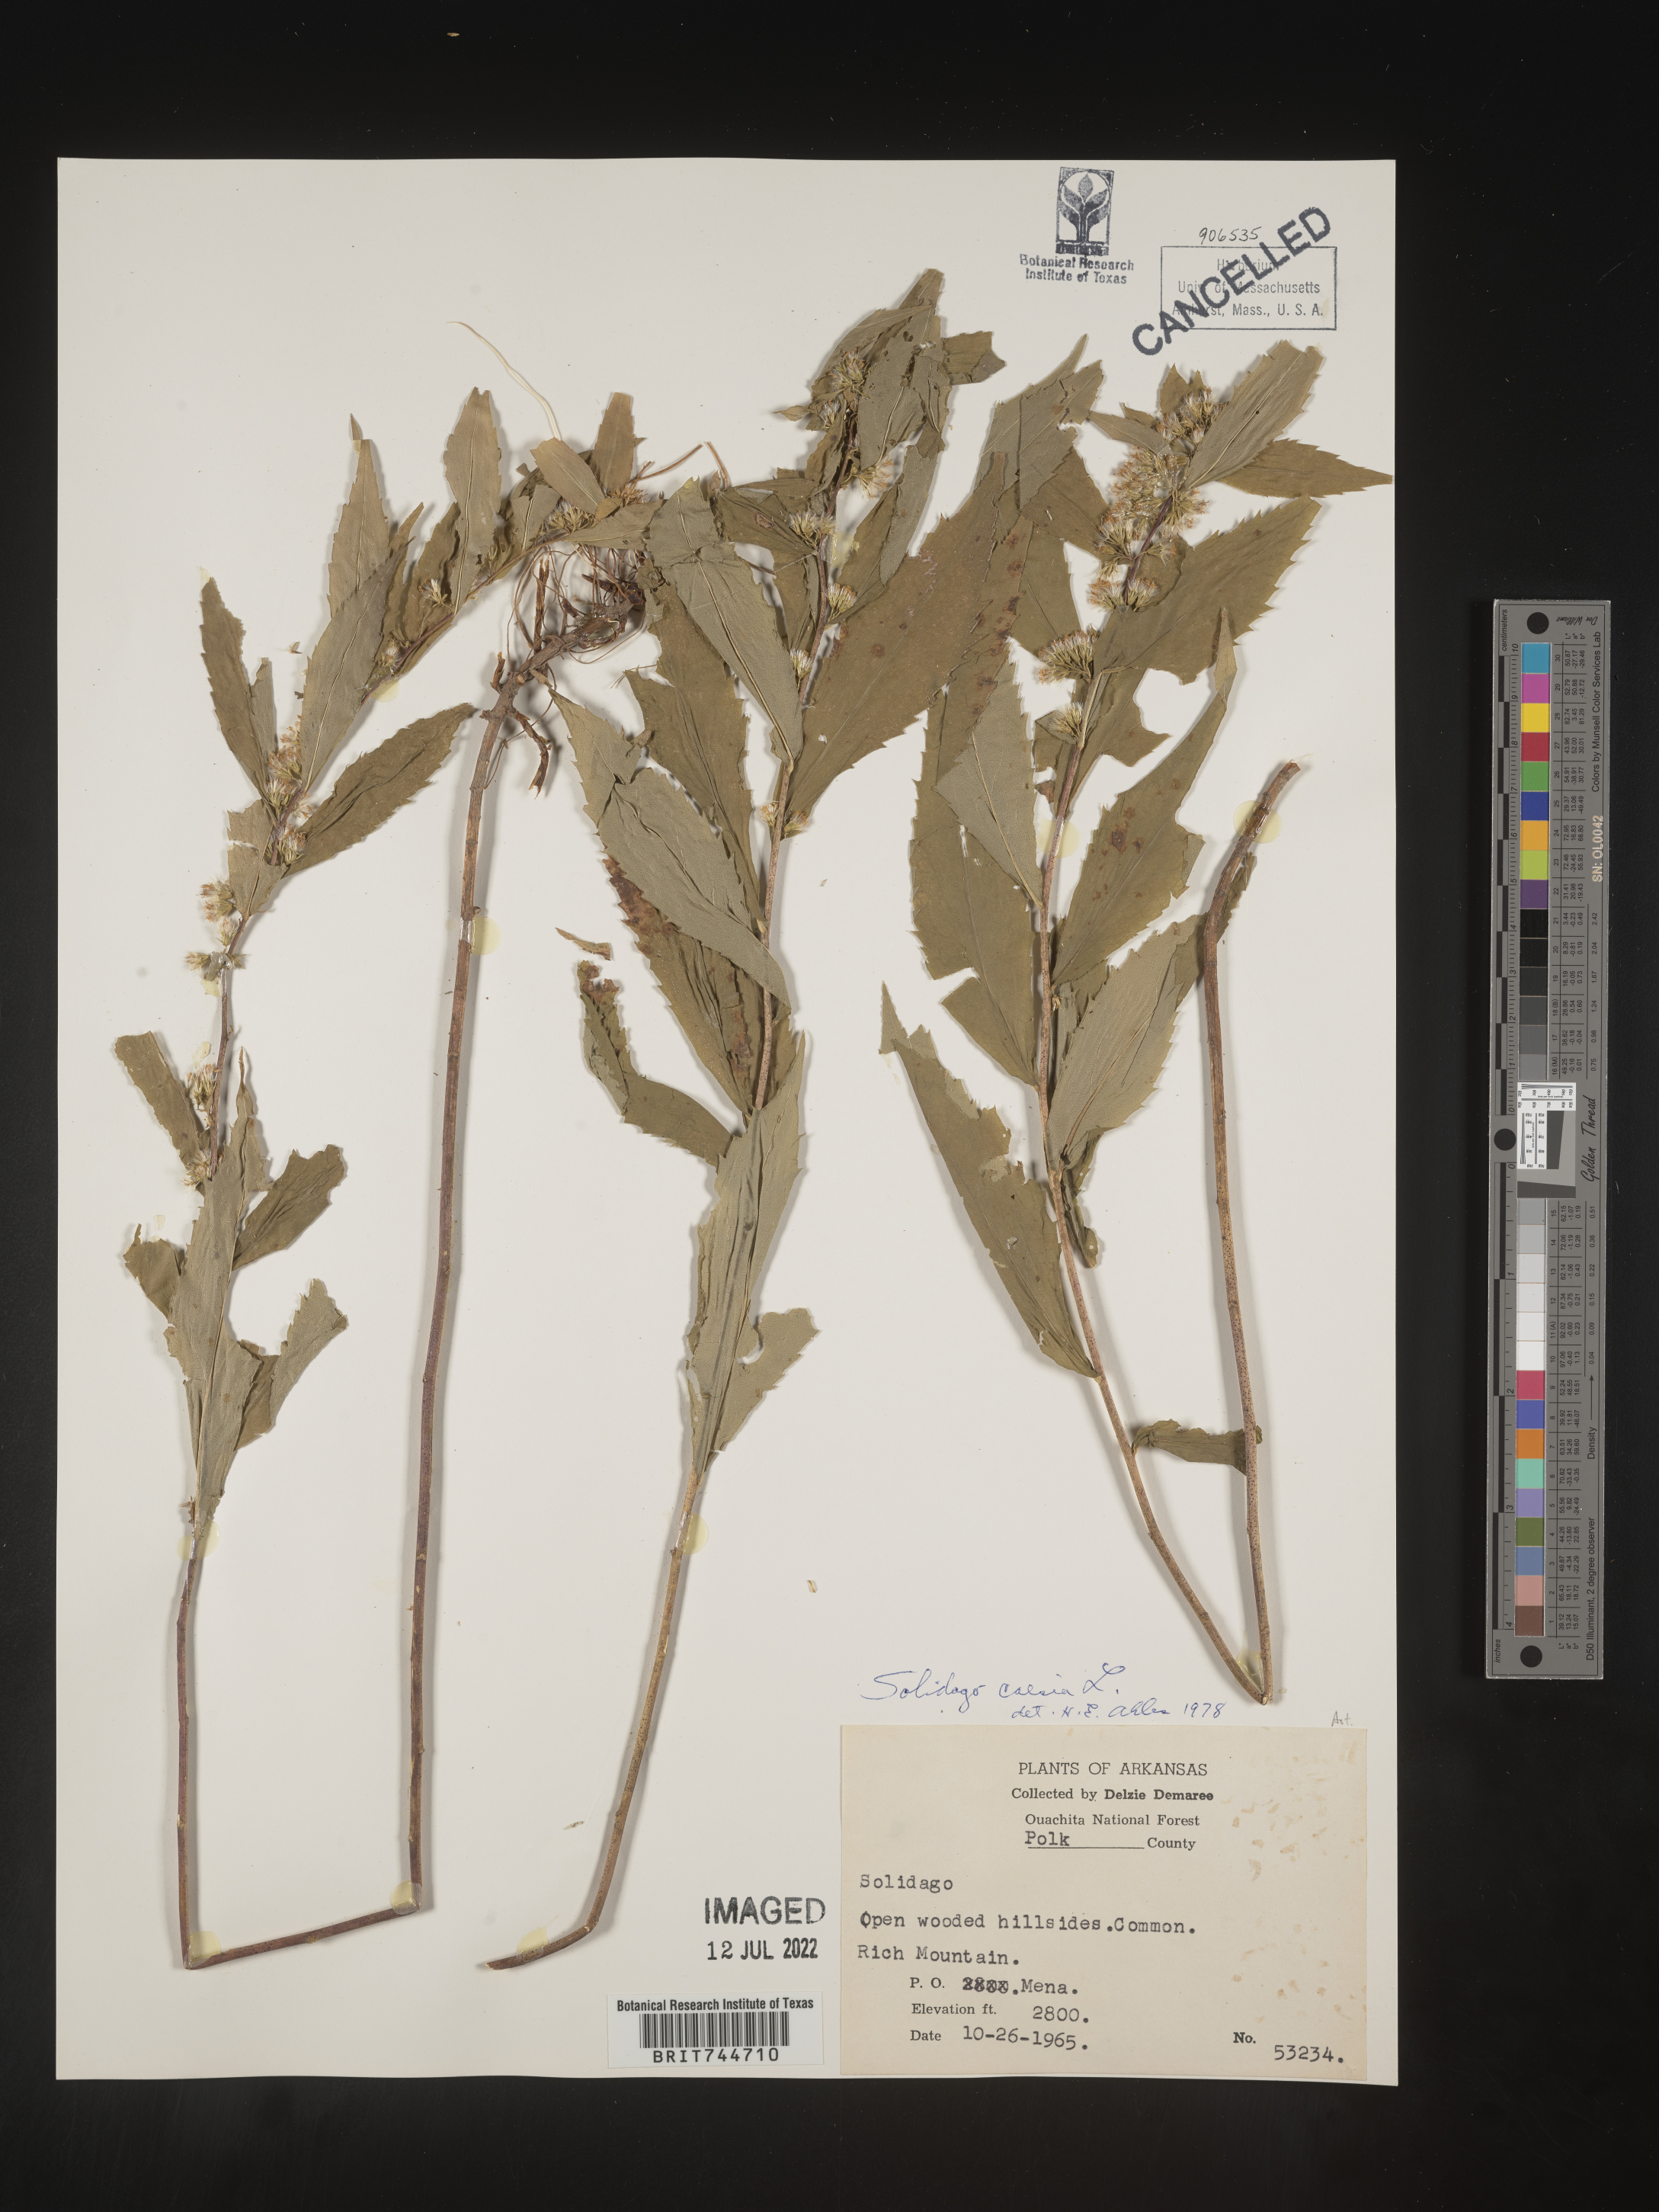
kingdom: Plantae
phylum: Tracheophyta
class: Magnoliopsida
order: Asterales
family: Asteraceae
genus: Solidago
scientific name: Solidago caesia
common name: Woodland goldenrod
